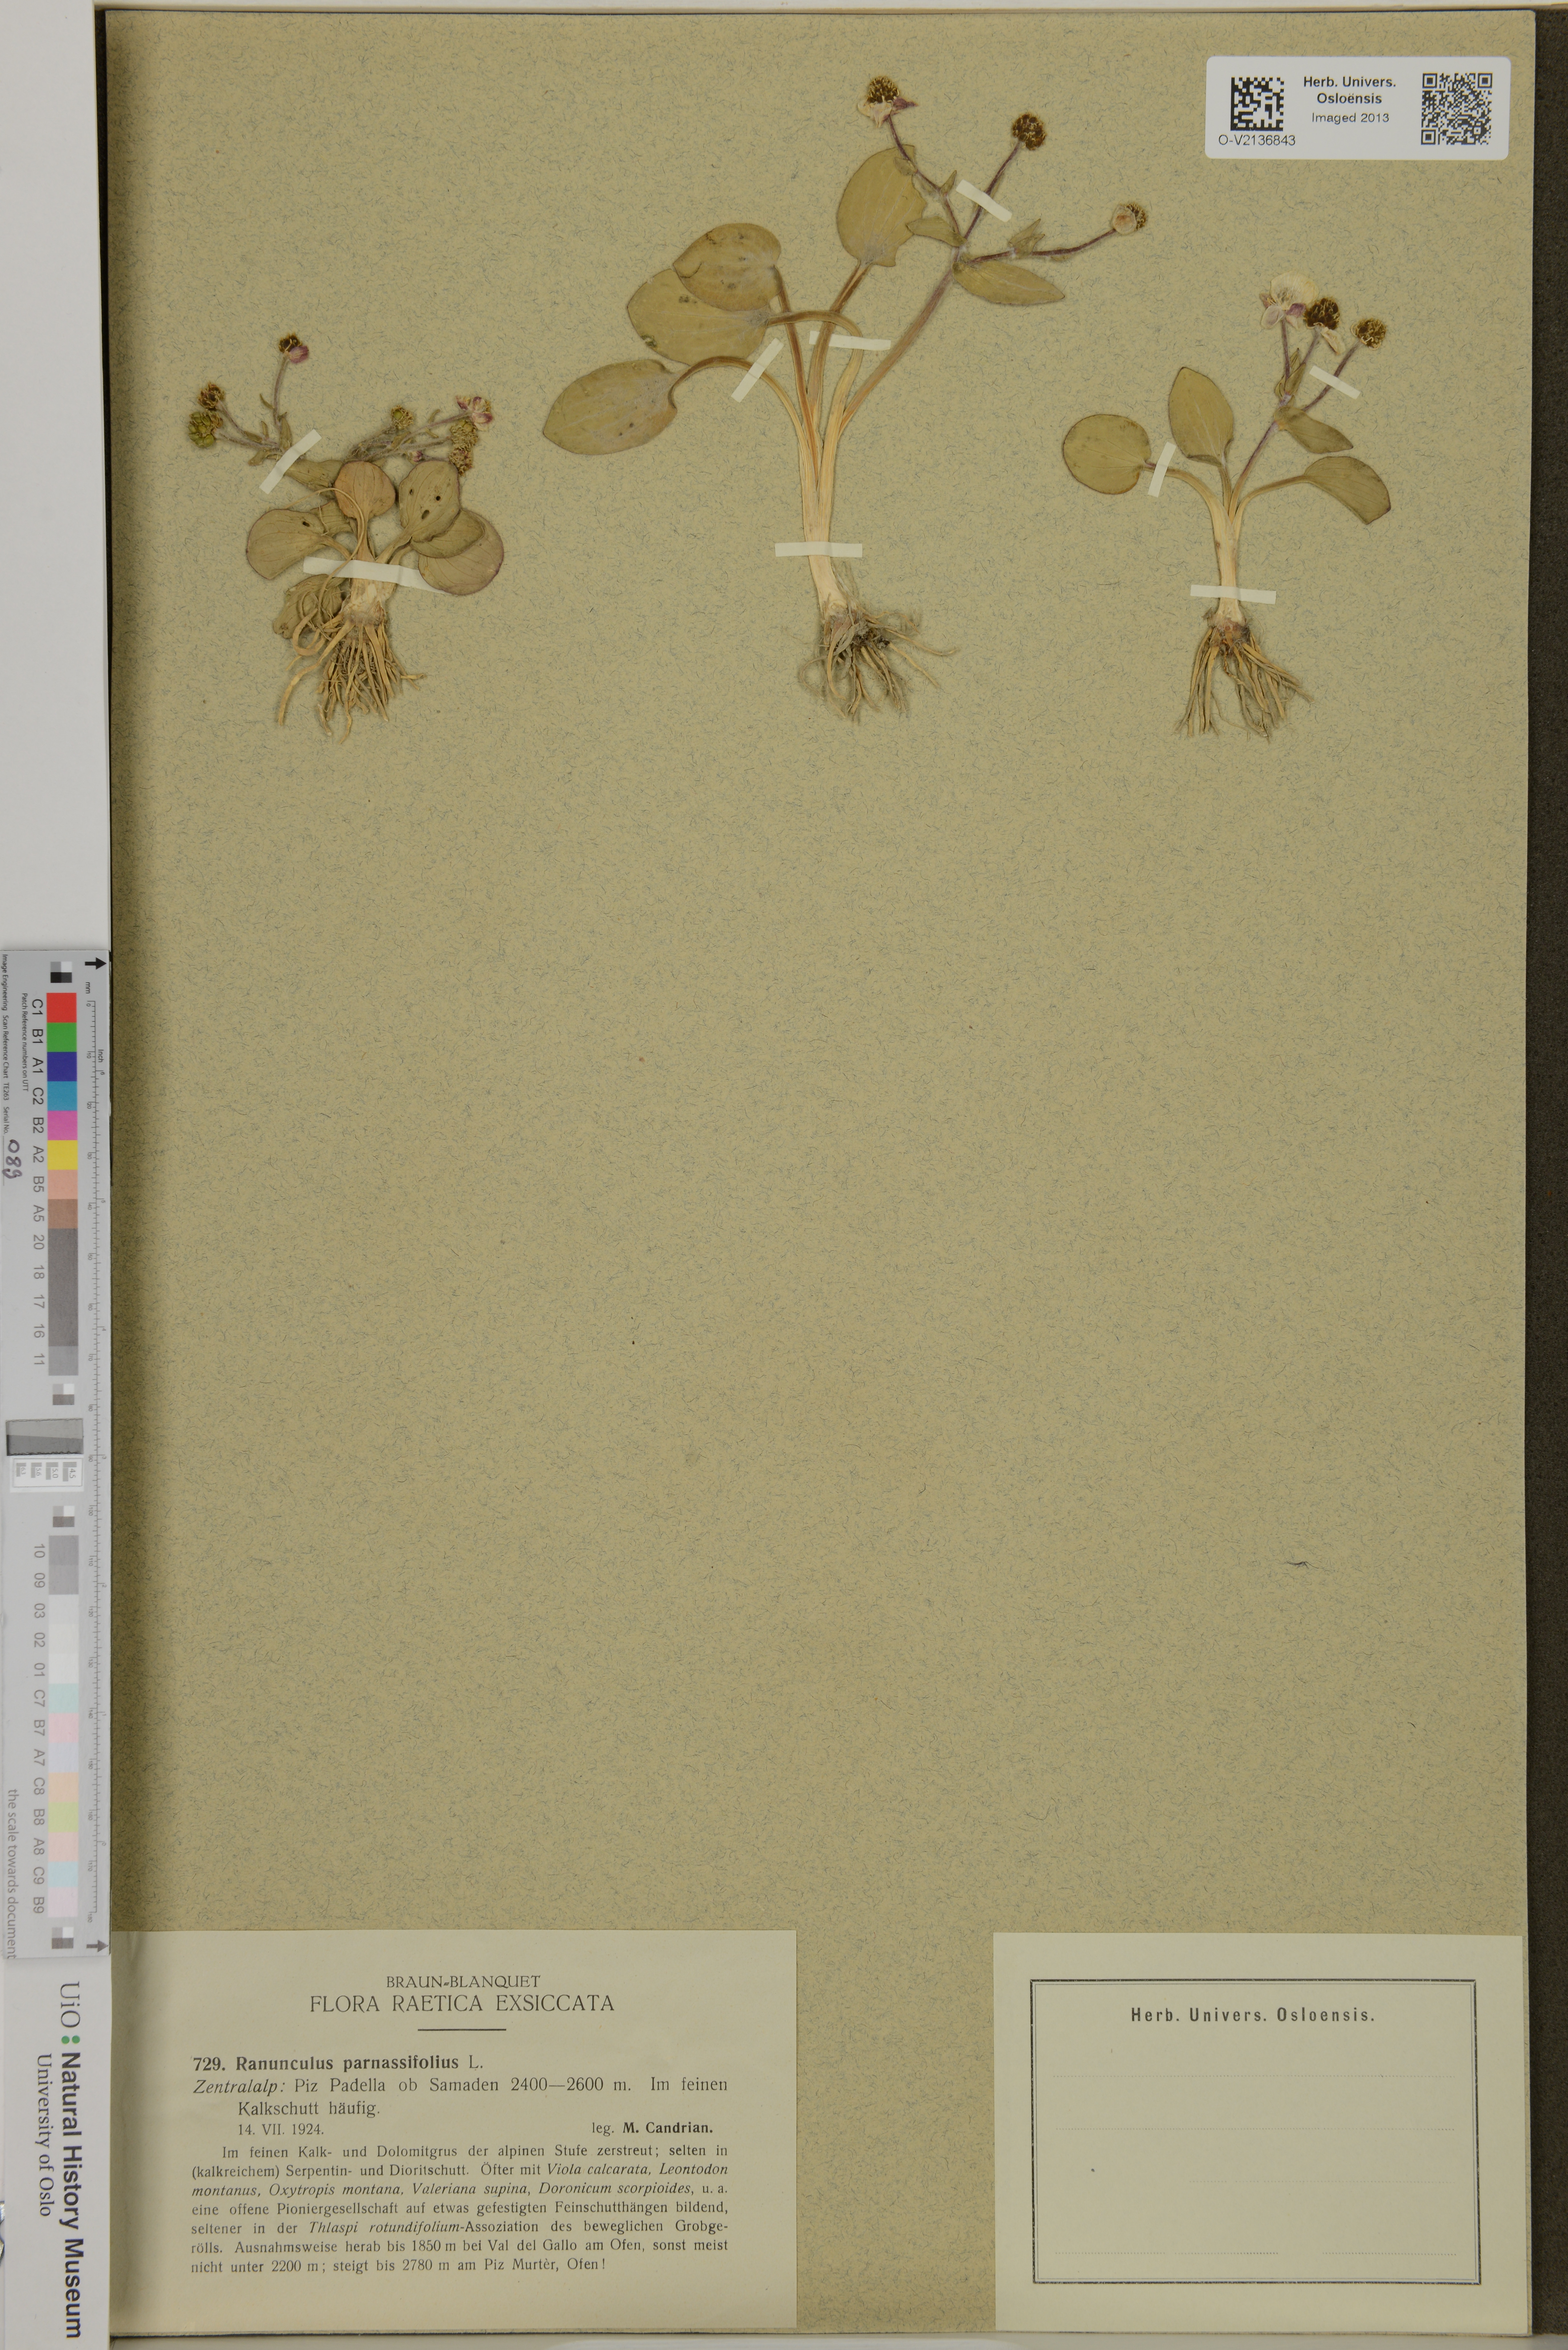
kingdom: Plantae
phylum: Tracheophyta
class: Magnoliopsida
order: Ranunculales
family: Ranunculaceae
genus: Ranunculus
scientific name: Ranunculus parnassiifolius
